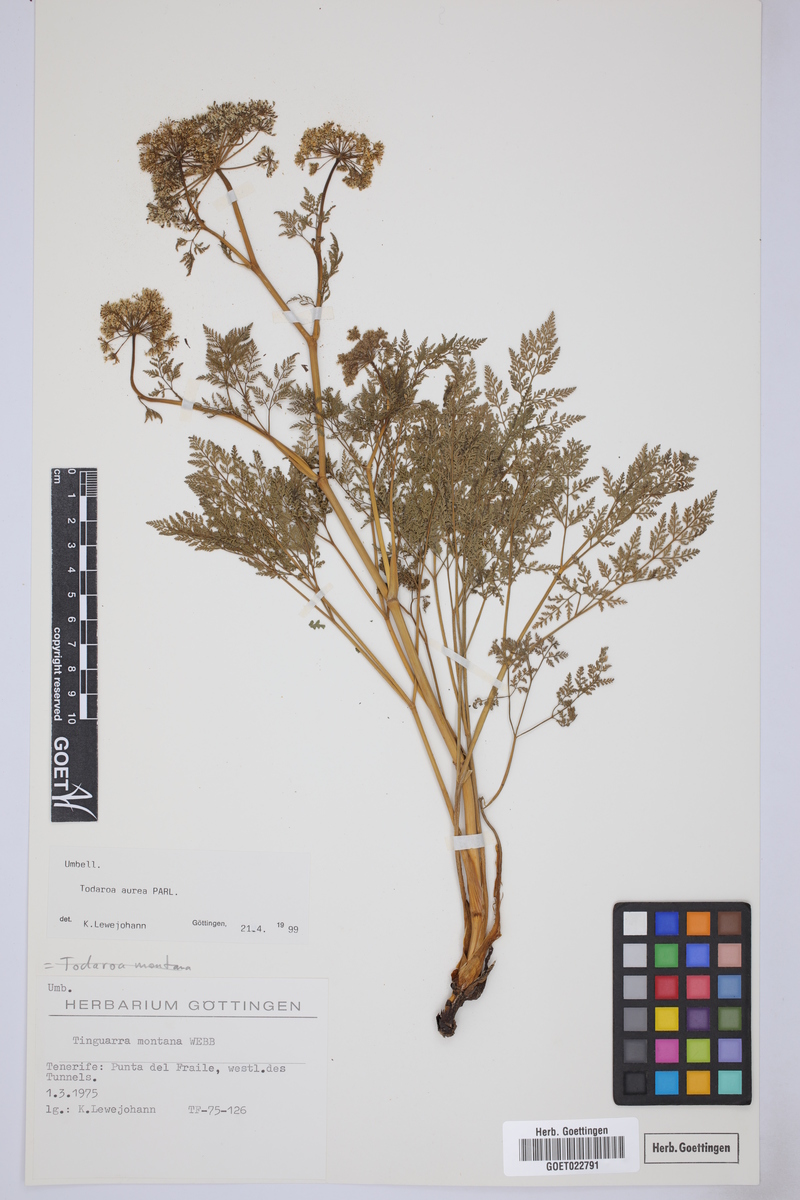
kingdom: Plantae
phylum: Tracheophyta
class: Magnoliopsida
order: Apiales
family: Apiaceae
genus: Todaroa
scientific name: Todaroa aurea
